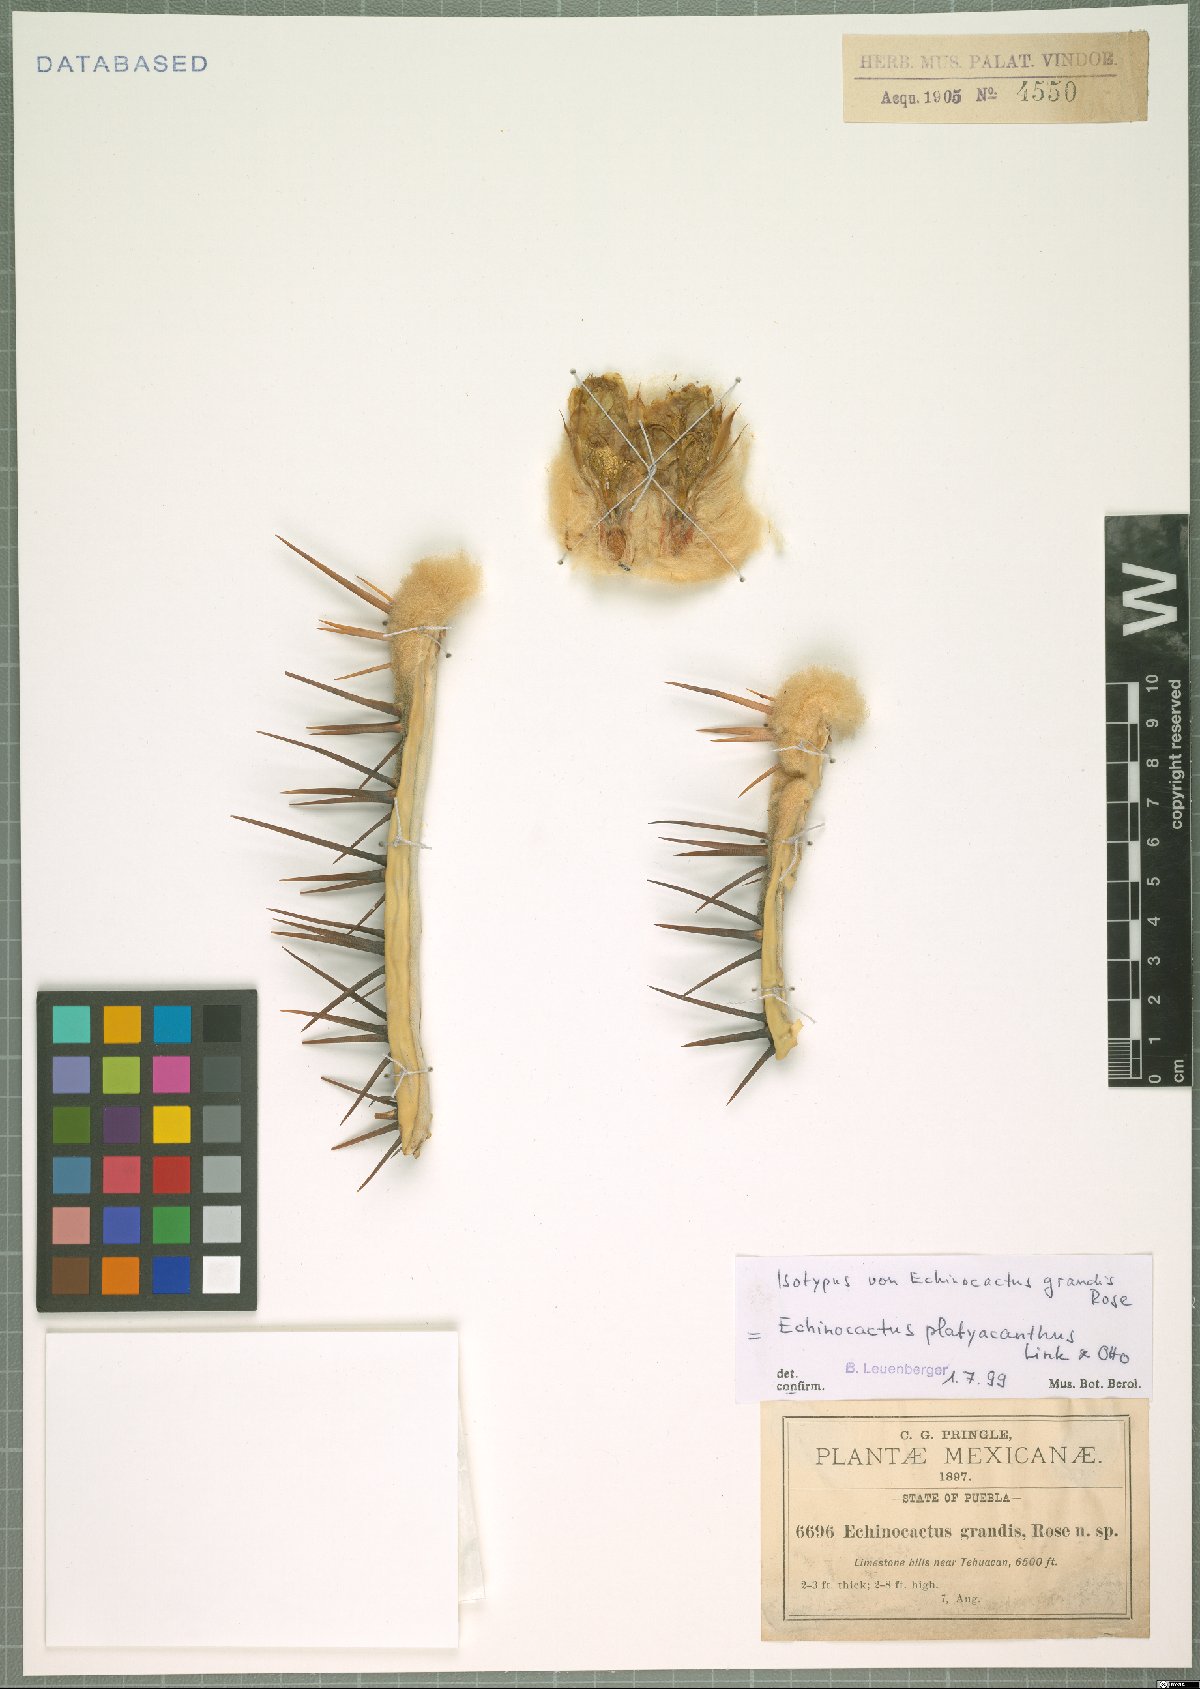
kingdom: Plantae
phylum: Tracheophyta
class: Magnoliopsida
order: Caryophyllales
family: Cactaceae
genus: Echinocactus
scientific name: Echinocactus platyacanthus
